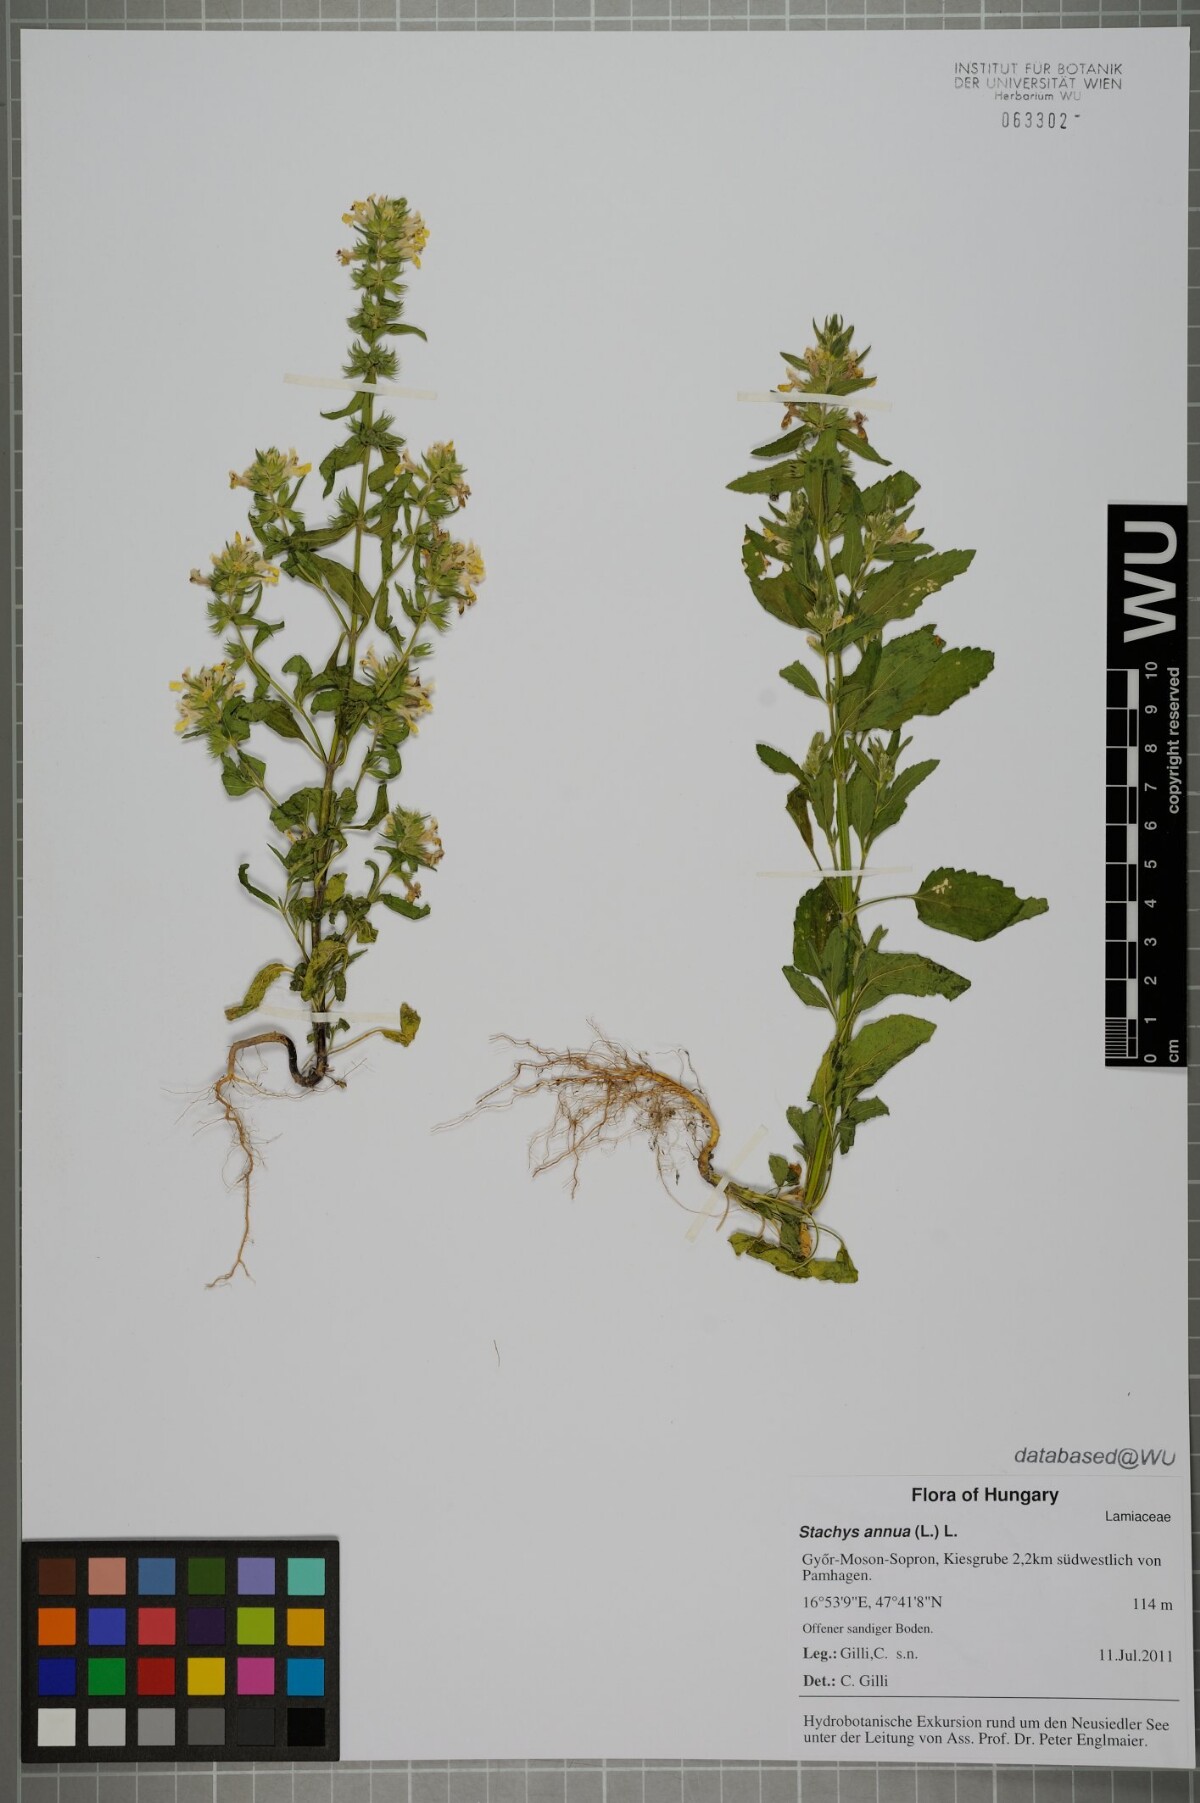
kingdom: Plantae
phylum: Tracheophyta
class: Magnoliopsida
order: Lamiales
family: Lamiaceae
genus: Stachys
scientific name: Stachys annua
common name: Annual yellow-woundwort
